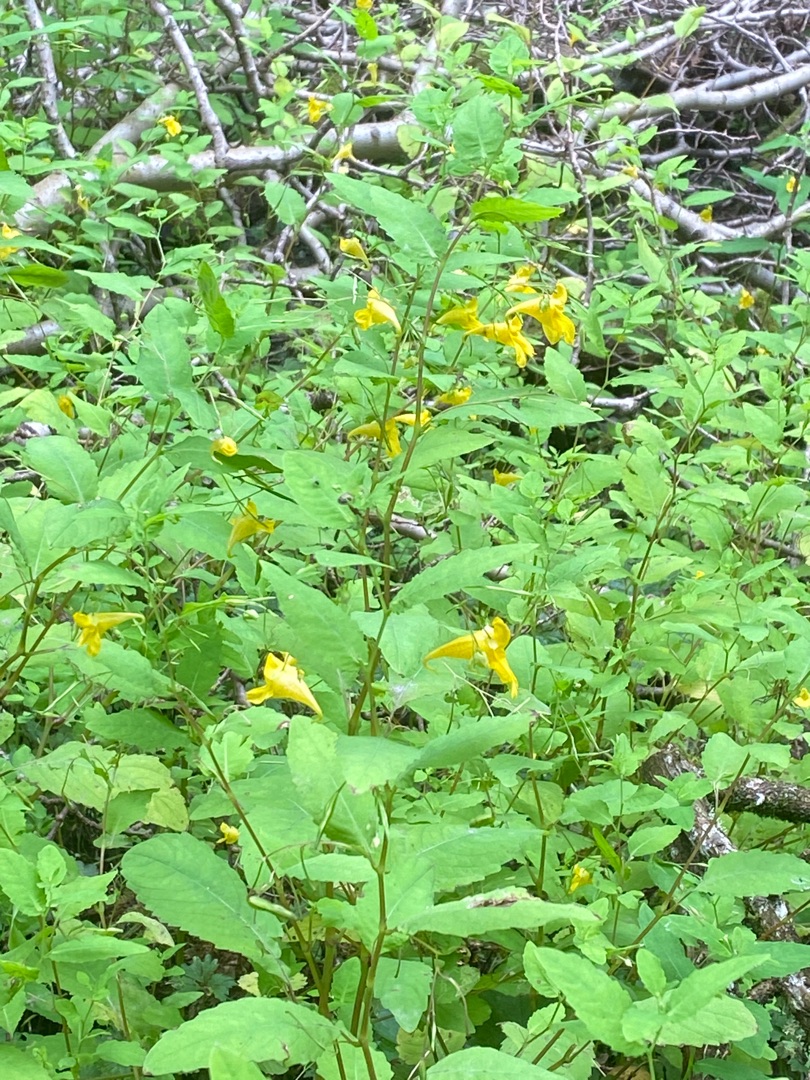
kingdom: Plantae
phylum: Tracheophyta
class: Magnoliopsida
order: Ericales
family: Balsaminaceae
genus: Impatiens
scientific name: Impatiens noli-tangere
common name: Spring-balsamin
